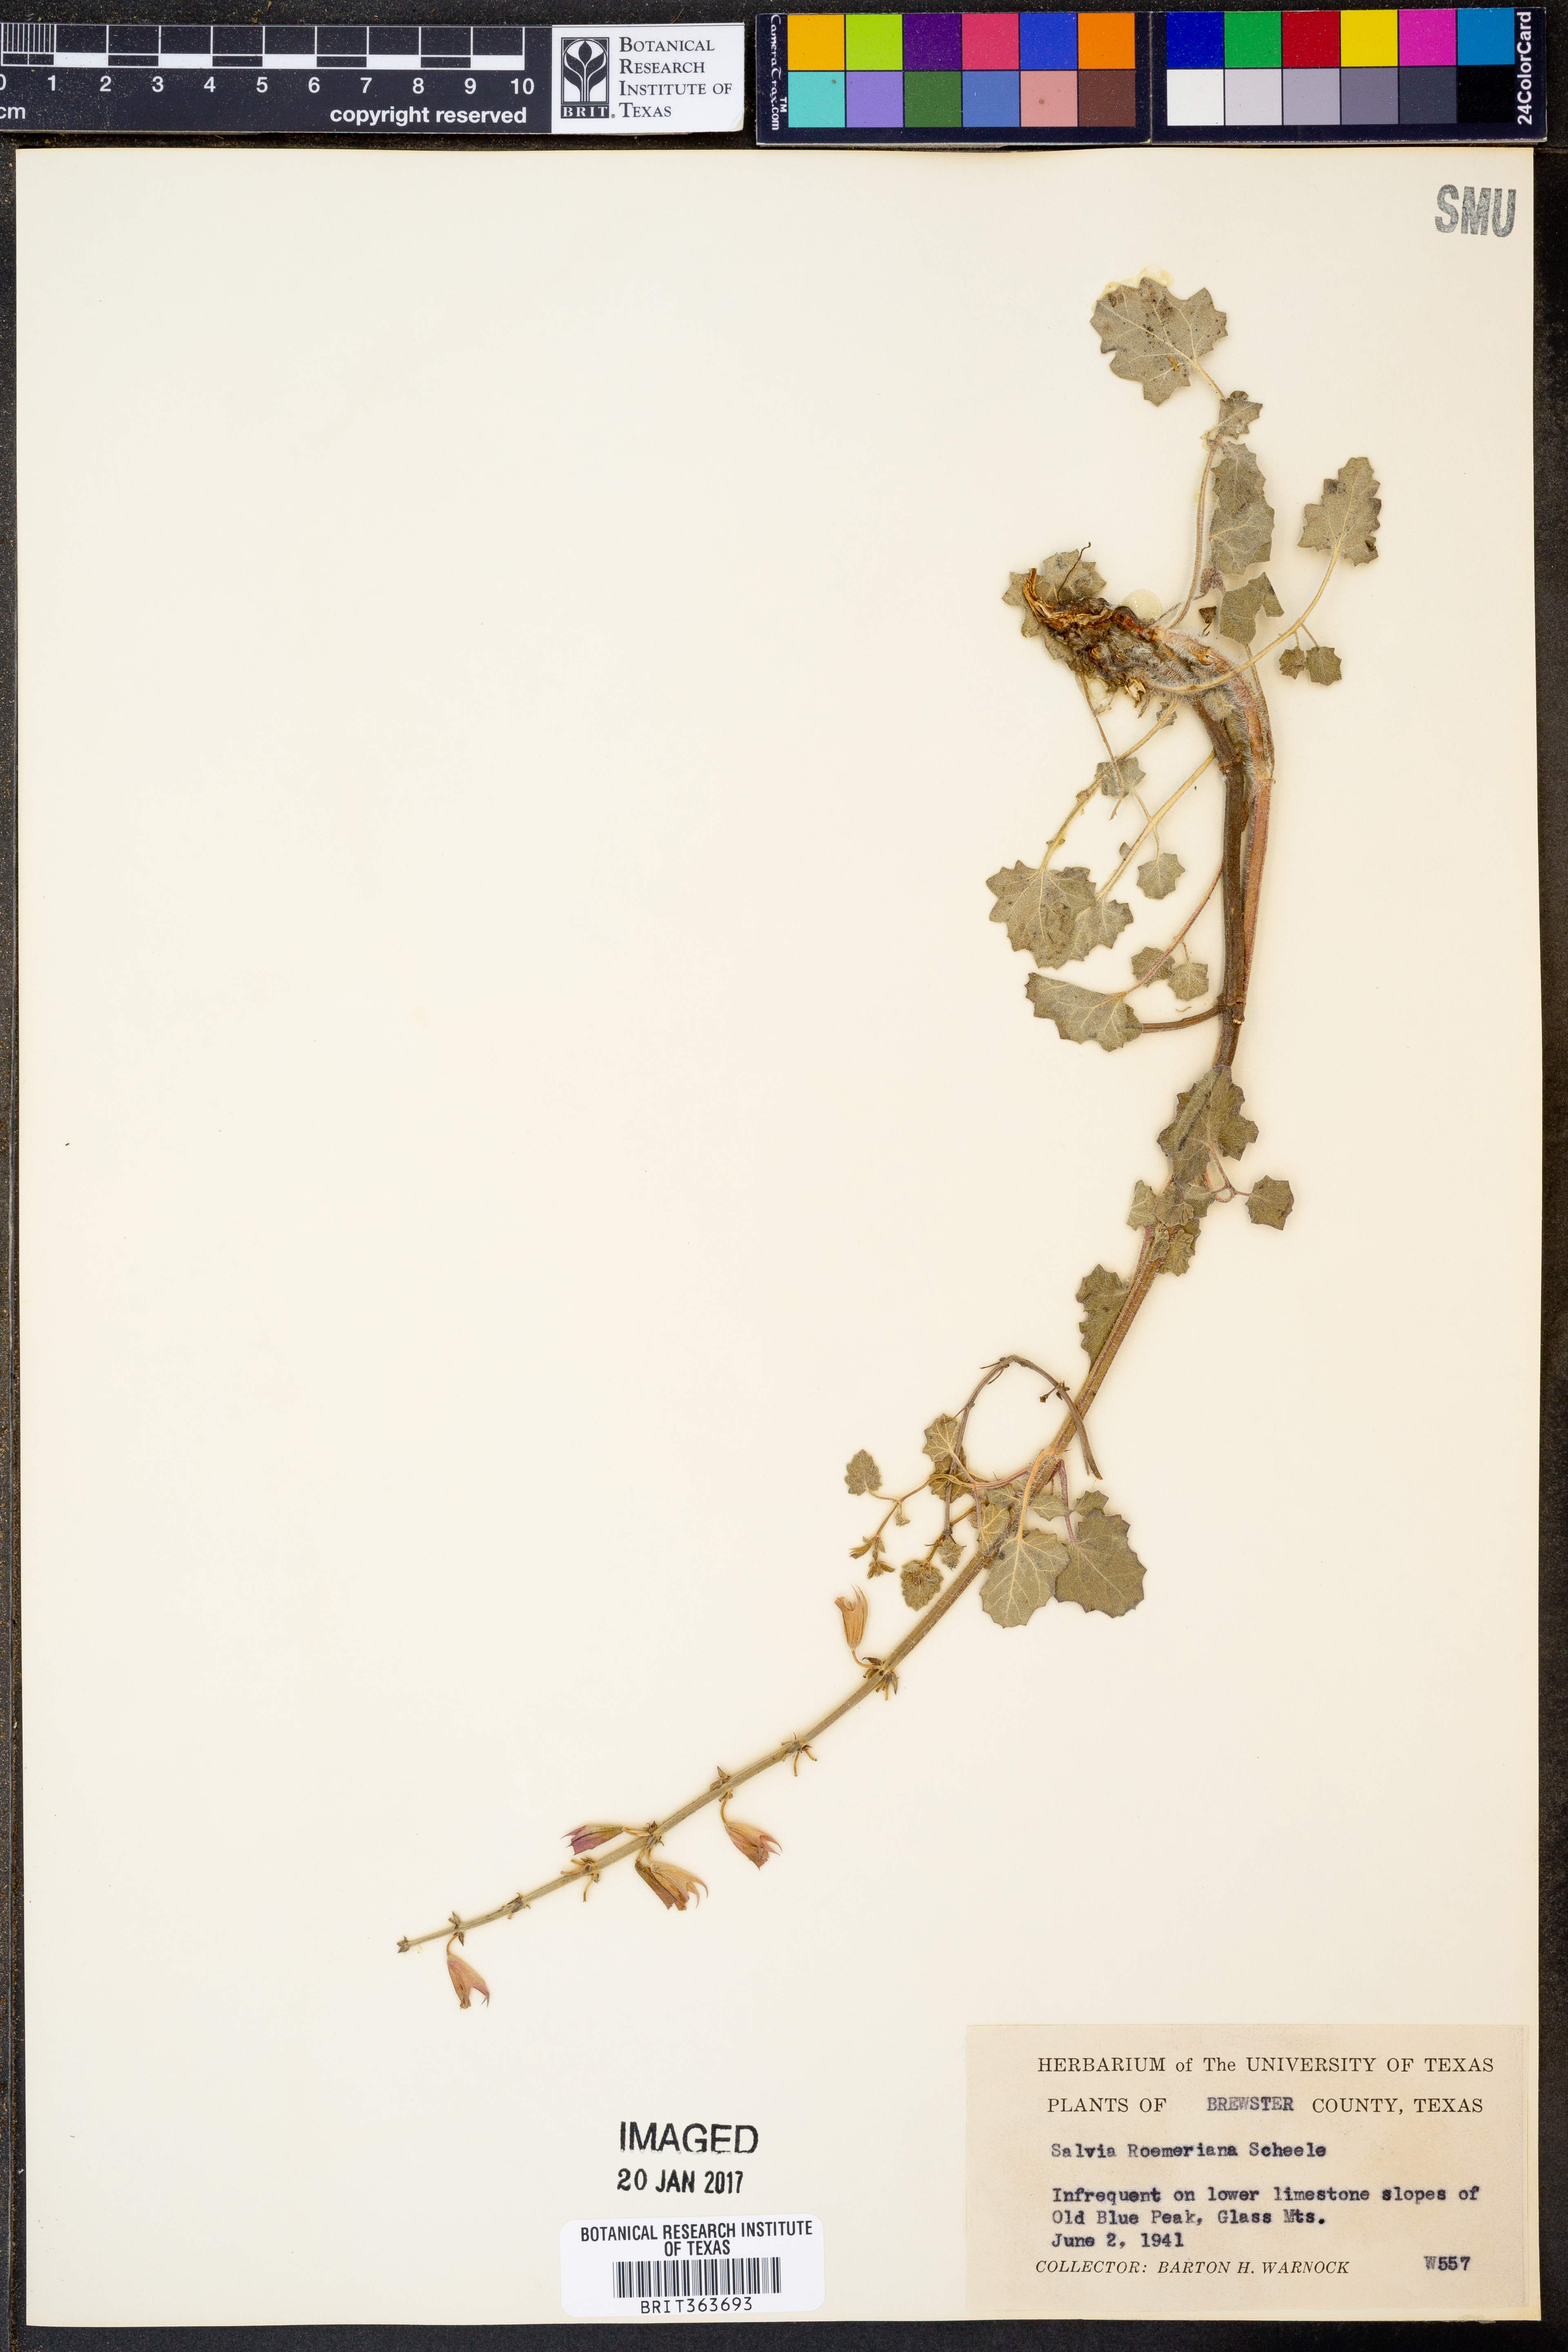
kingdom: Plantae
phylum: Tracheophyta
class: Magnoliopsida
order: Lamiales
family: Lamiaceae
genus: Salvia
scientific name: Salvia roemeriana
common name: Cedar sage
